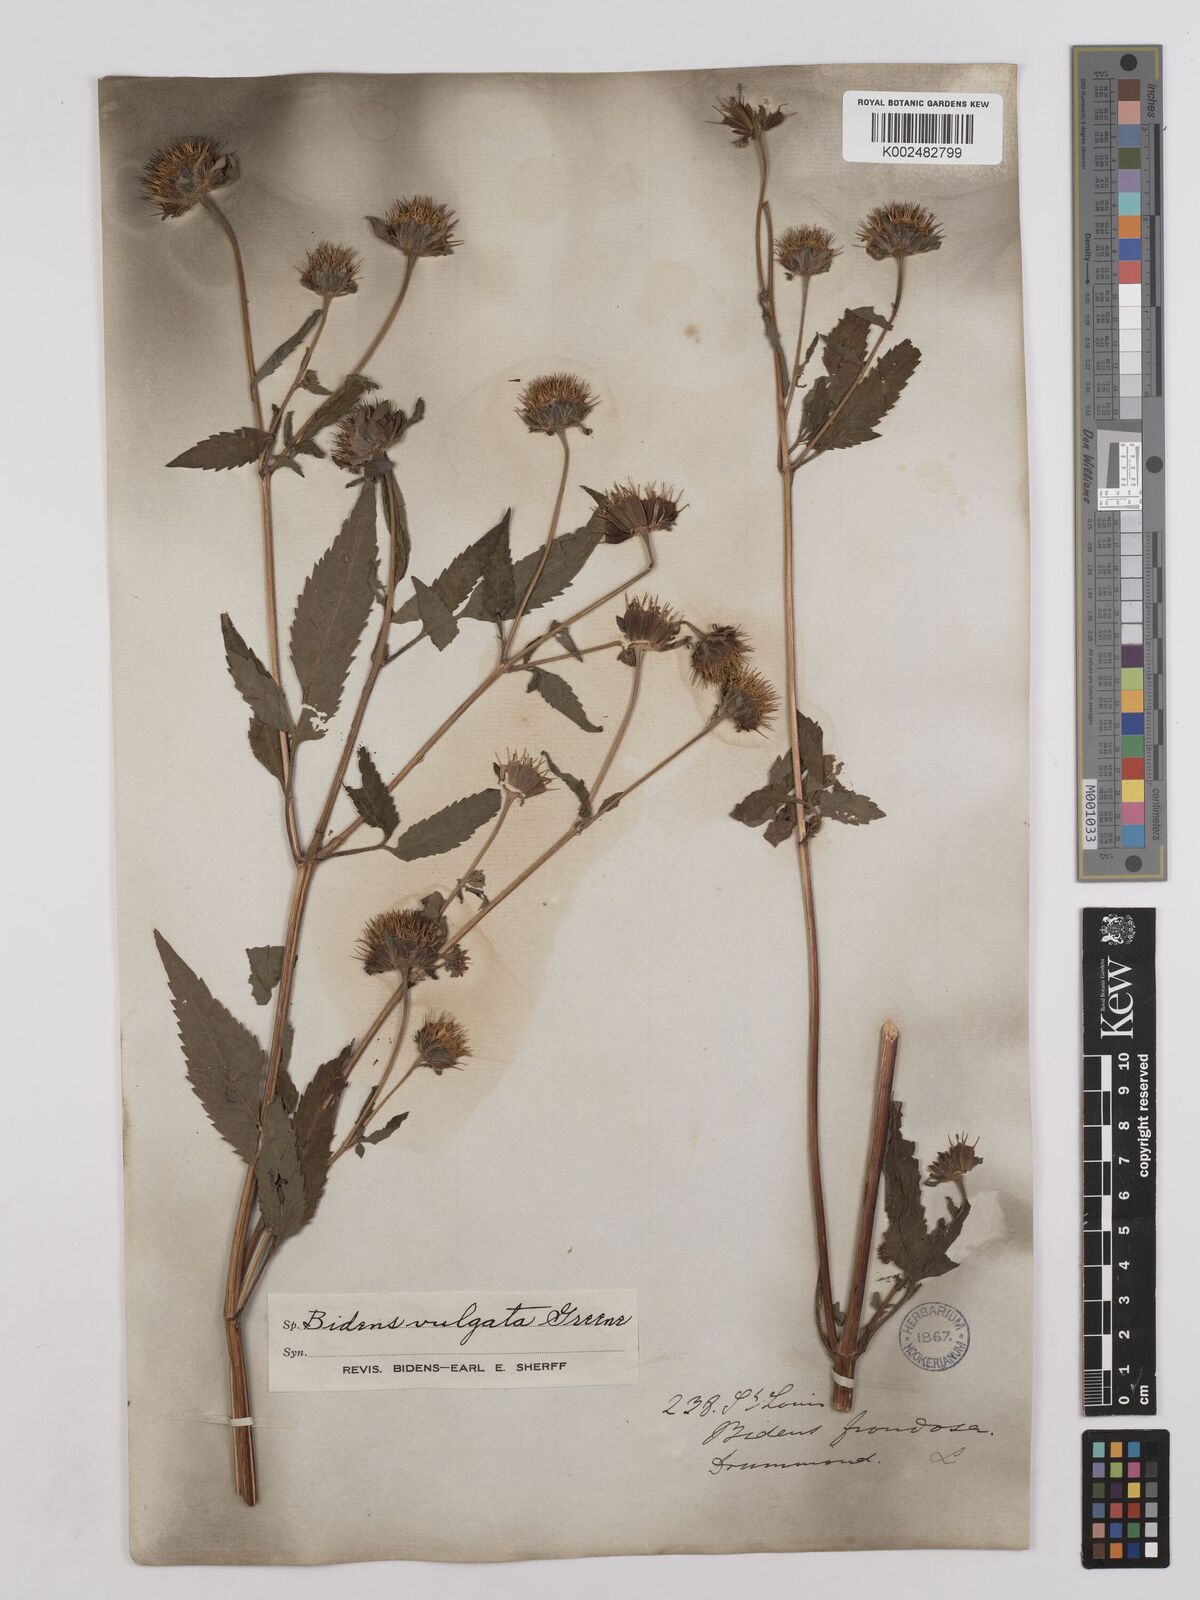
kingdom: Plantae
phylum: Tracheophyta
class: Magnoliopsida
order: Asterales
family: Asteraceae
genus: Bidens
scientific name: Bidens vulgata
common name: Tall beggarticks
